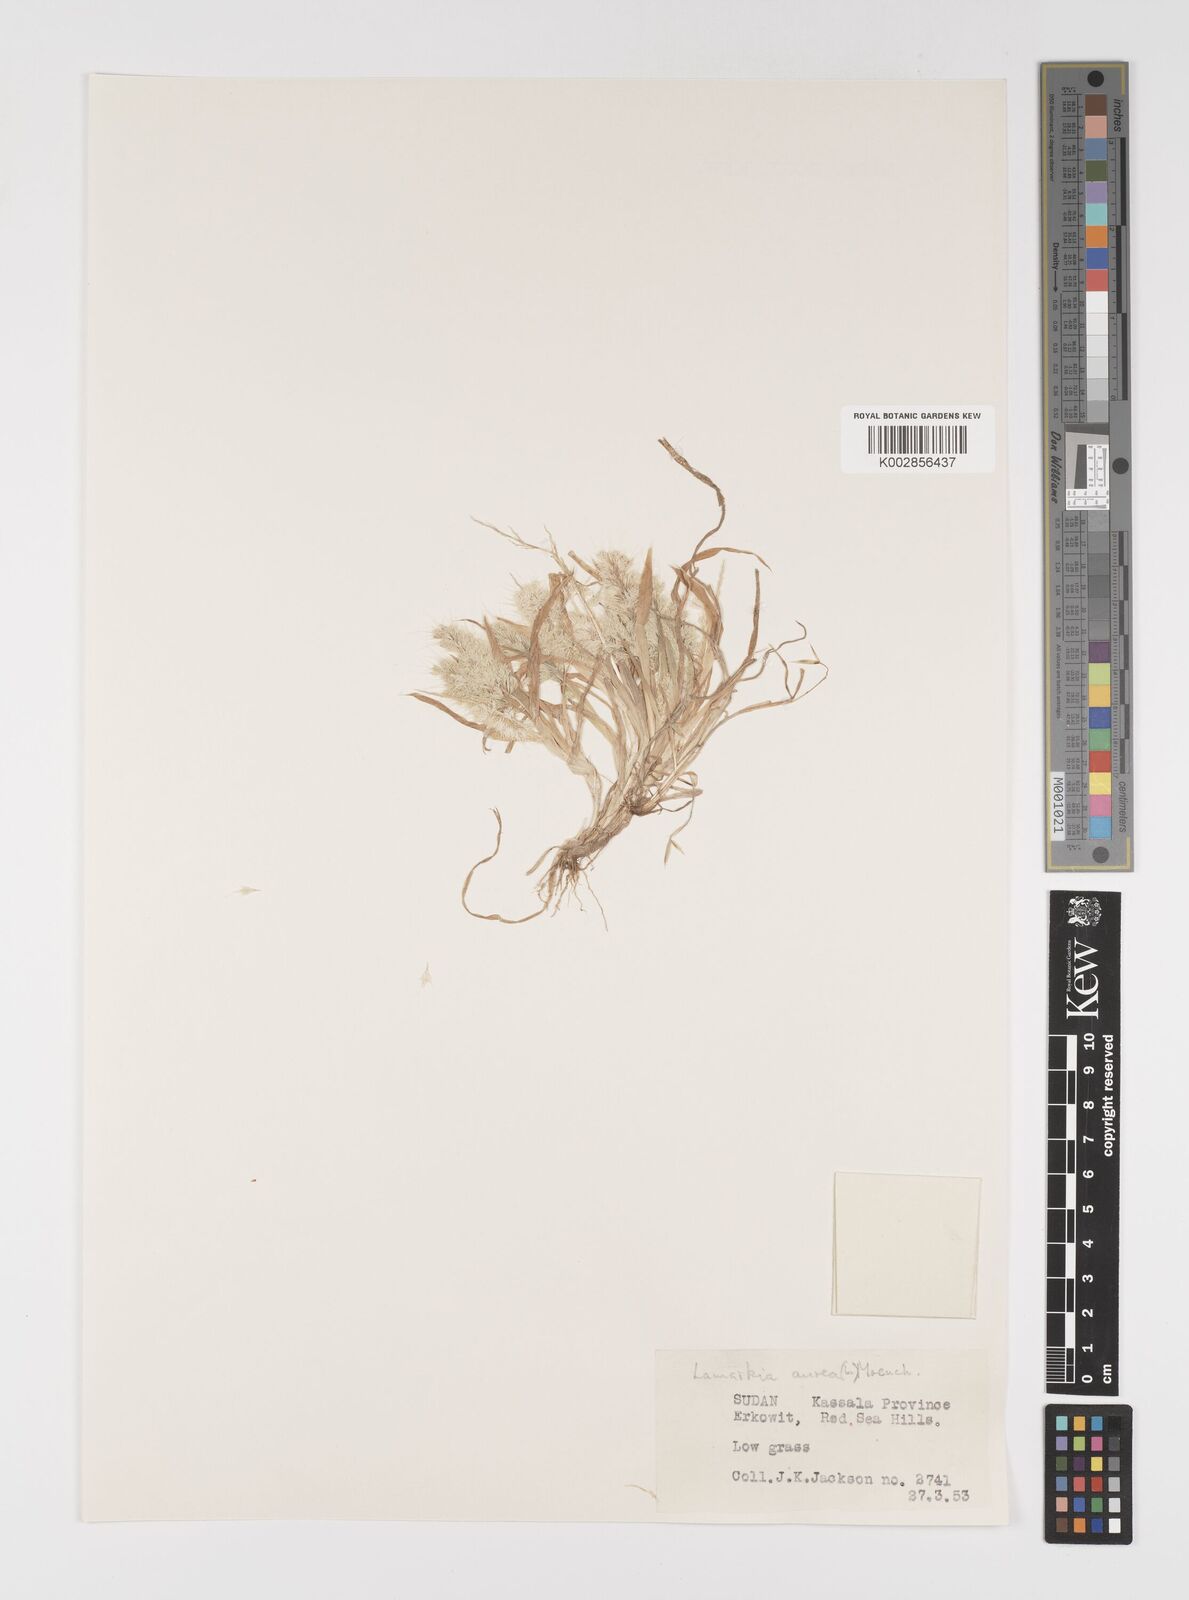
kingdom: Plantae
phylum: Tracheophyta
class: Liliopsida
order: Poales
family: Poaceae
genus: Lamarckia
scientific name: Lamarckia aurea
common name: Golden dog's-tail
